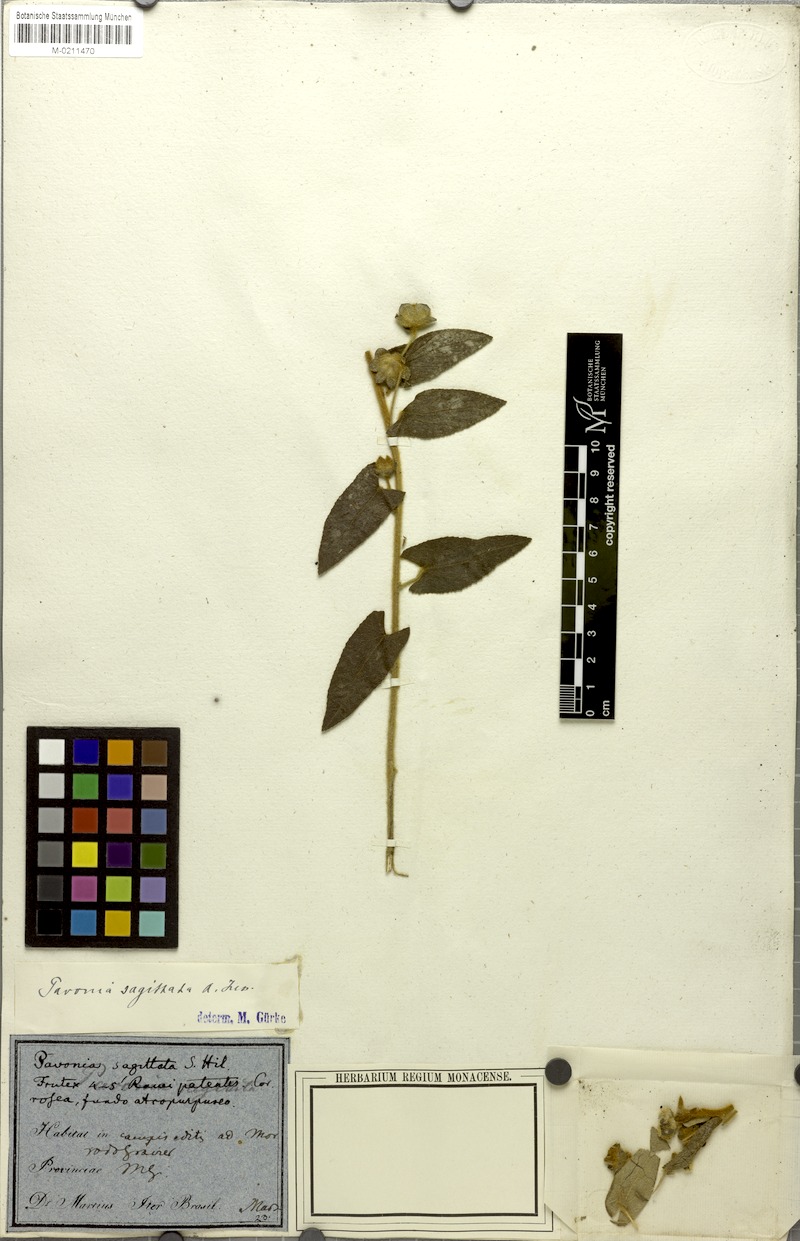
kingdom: Plantae
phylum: Tracheophyta
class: Magnoliopsida
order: Malvales
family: Malvaceae
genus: Pavonia
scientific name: Pavonia sagittata
